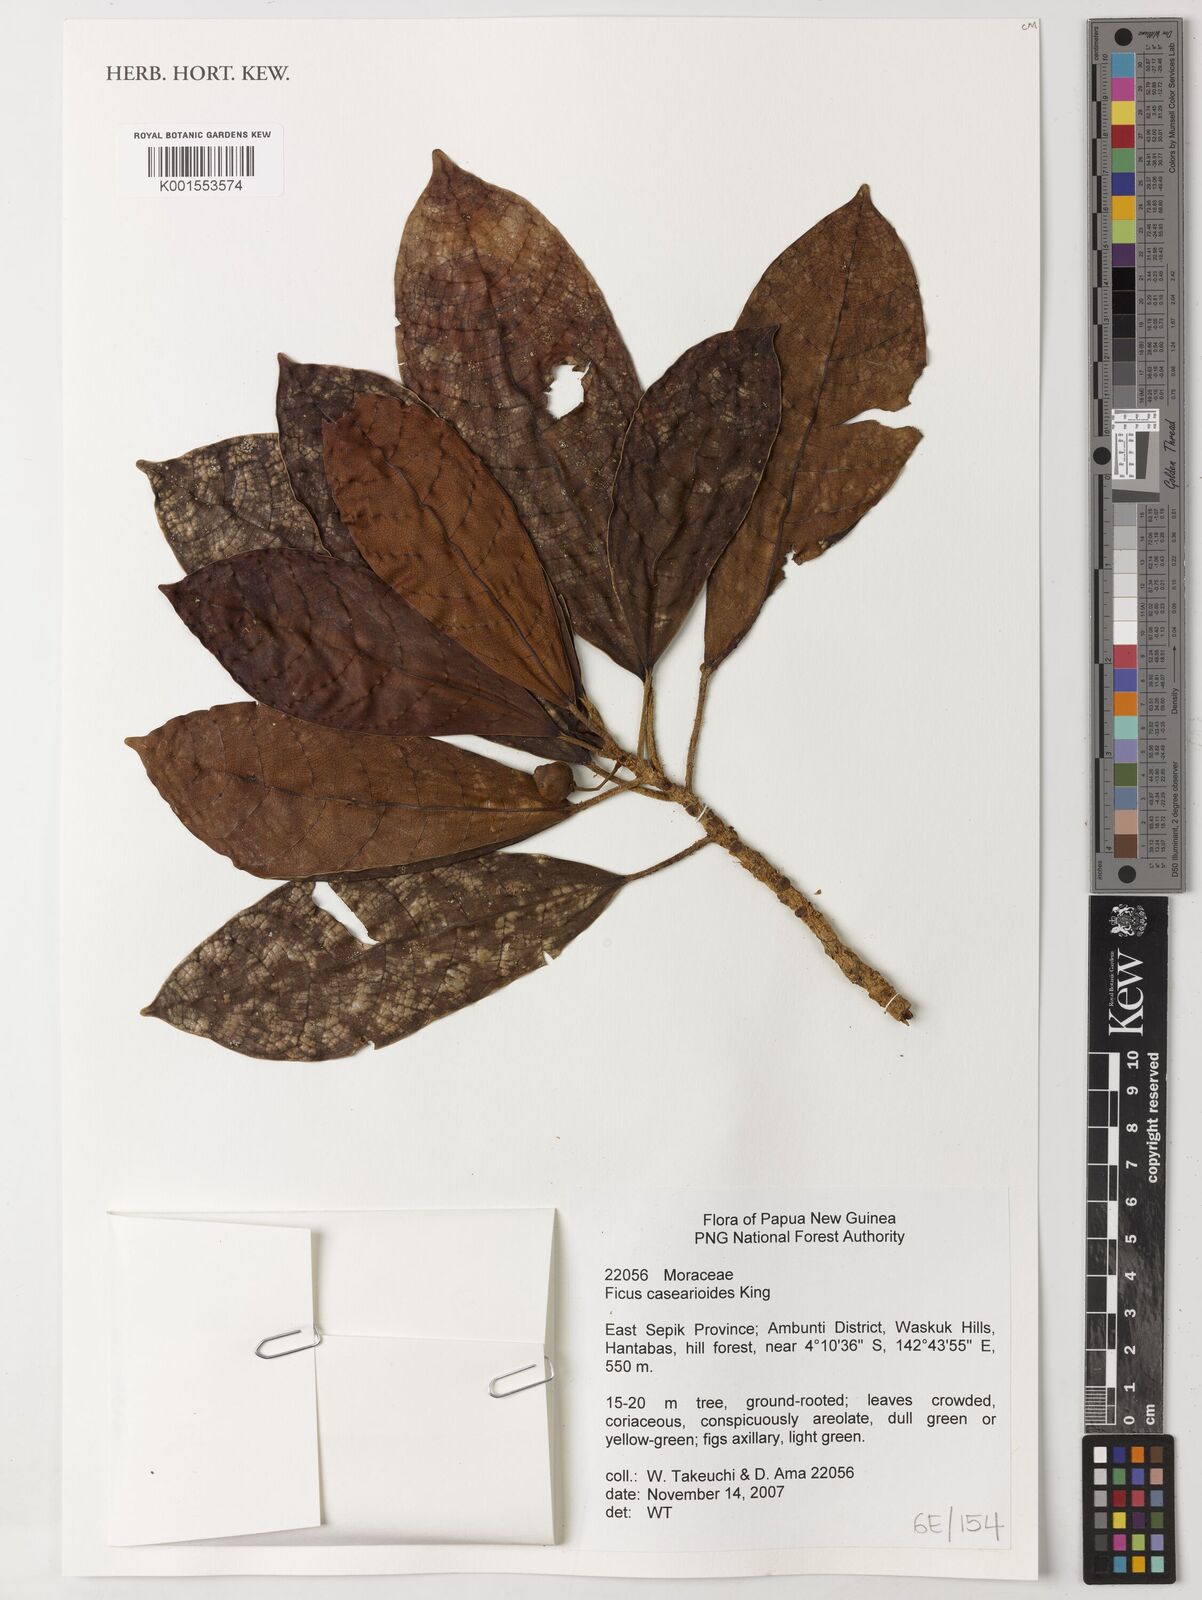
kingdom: Plantae
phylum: Tracheophyta
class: Magnoliopsida
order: Rosales
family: Moraceae
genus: Ficus
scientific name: Ficus casearioides
